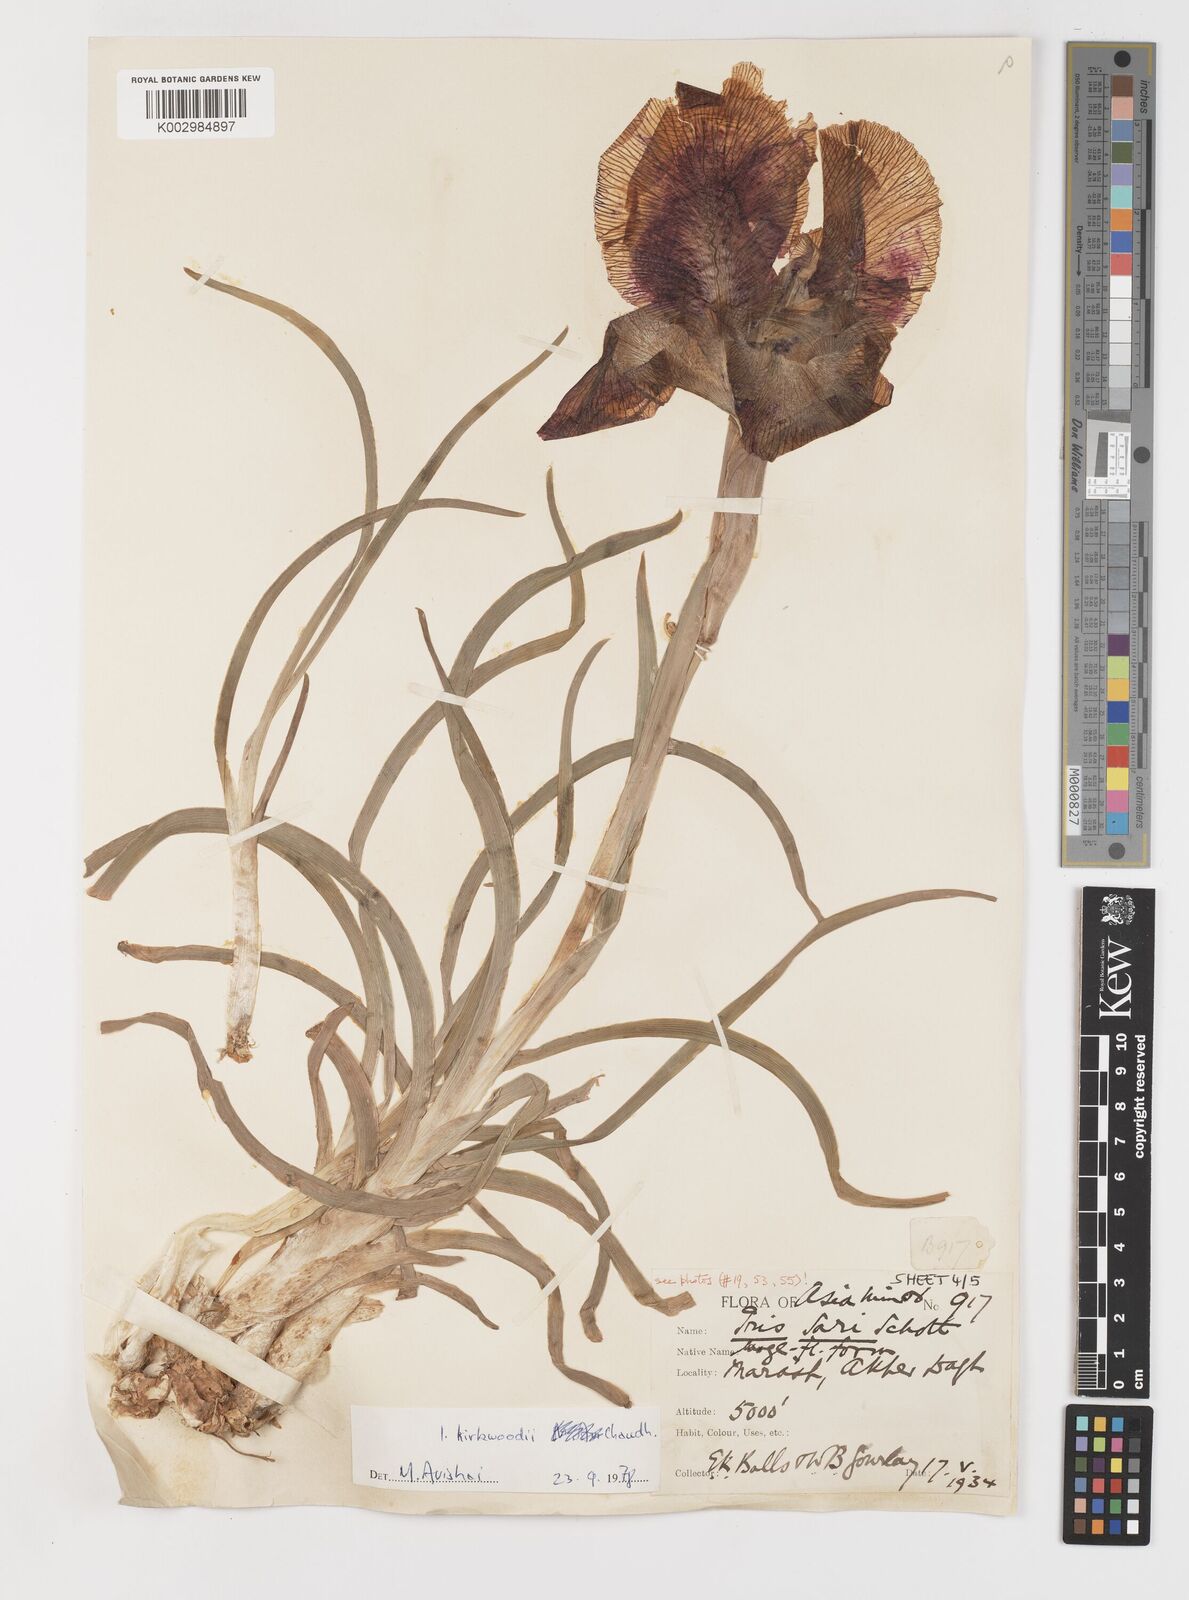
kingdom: Plantae
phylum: Tracheophyta
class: Liliopsida
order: Asparagales
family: Iridaceae
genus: Iris
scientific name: Iris kirkwoodiae
